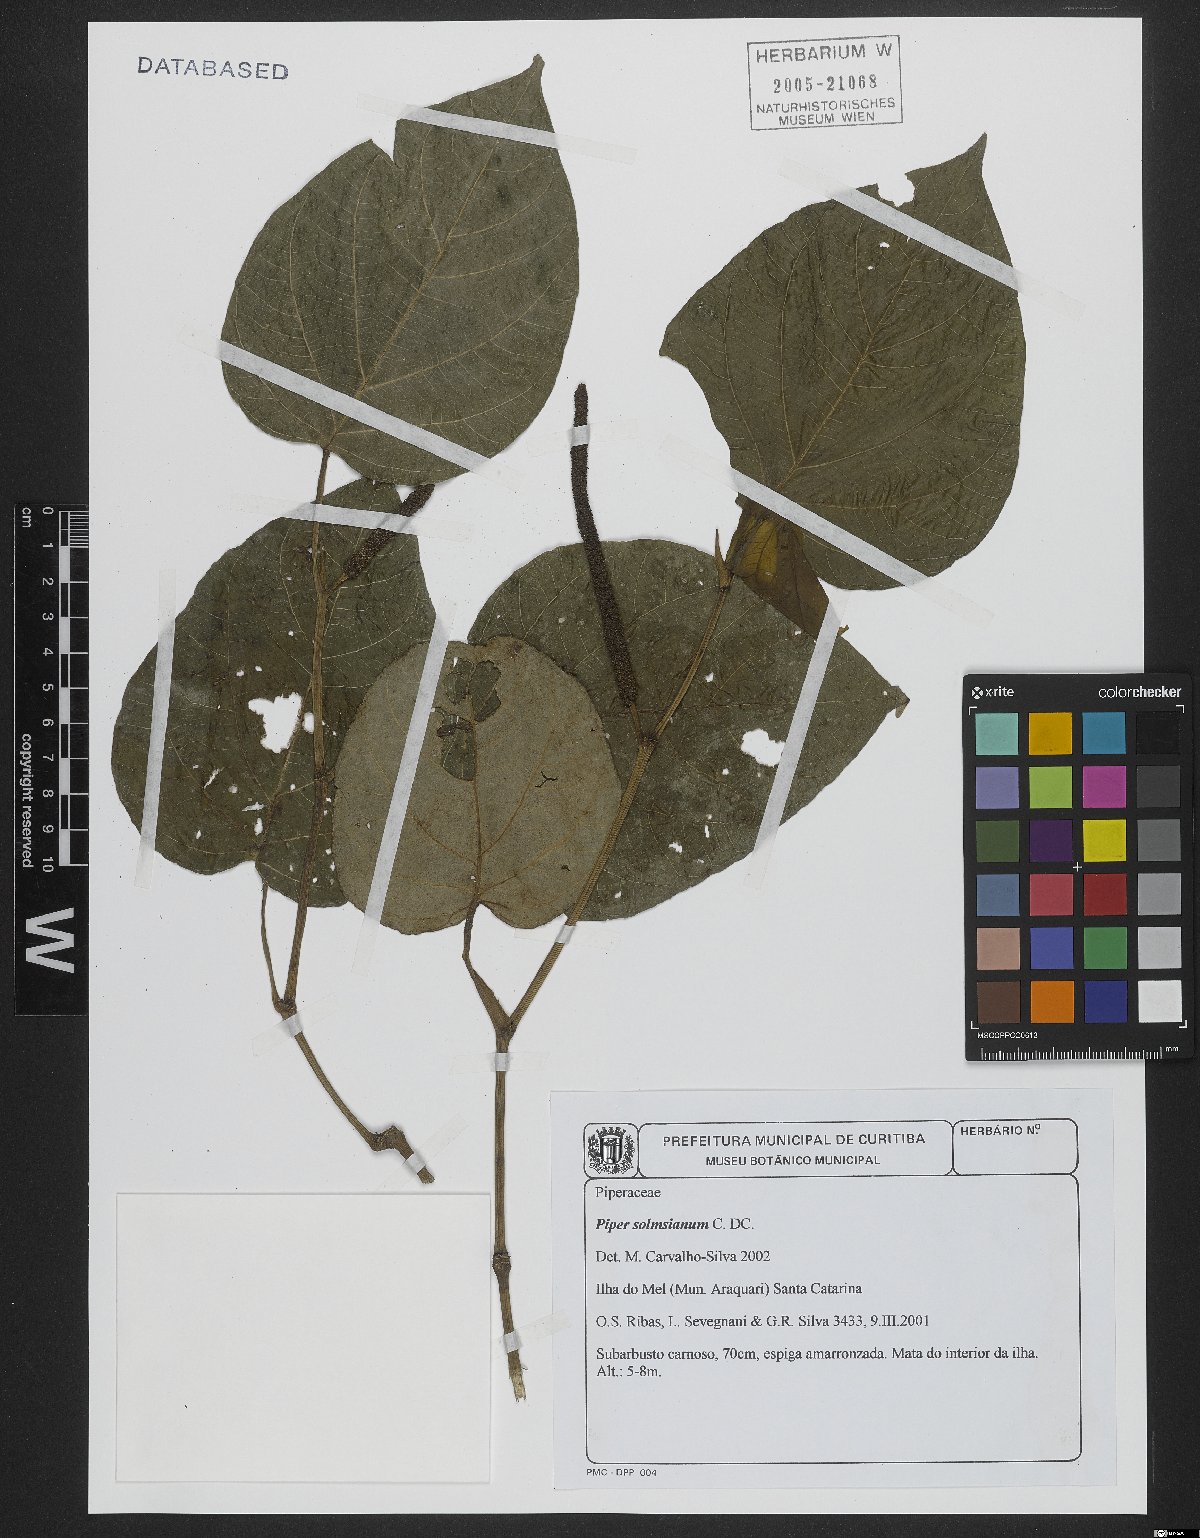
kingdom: Plantae
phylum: Tracheophyta
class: Magnoliopsida
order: Piperales
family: Piperaceae
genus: Piper
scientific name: Piper solmsianum
